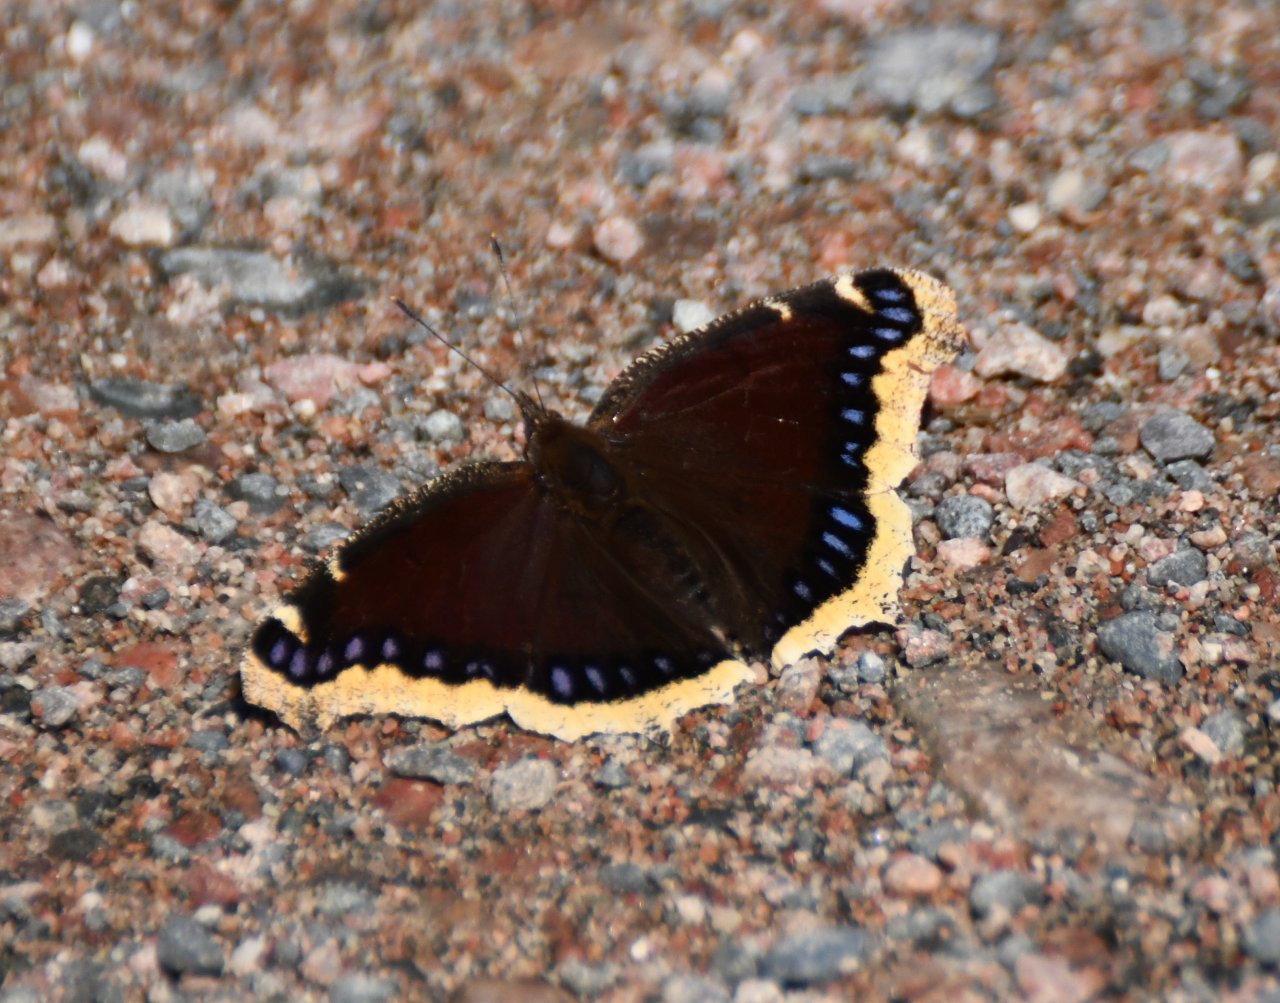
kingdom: Animalia
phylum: Arthropoda
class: Insecta
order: Lepidoptera
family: Nymphalidae
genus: Nymphalis
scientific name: Nymphalis antiopa
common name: Mourning Cloak
